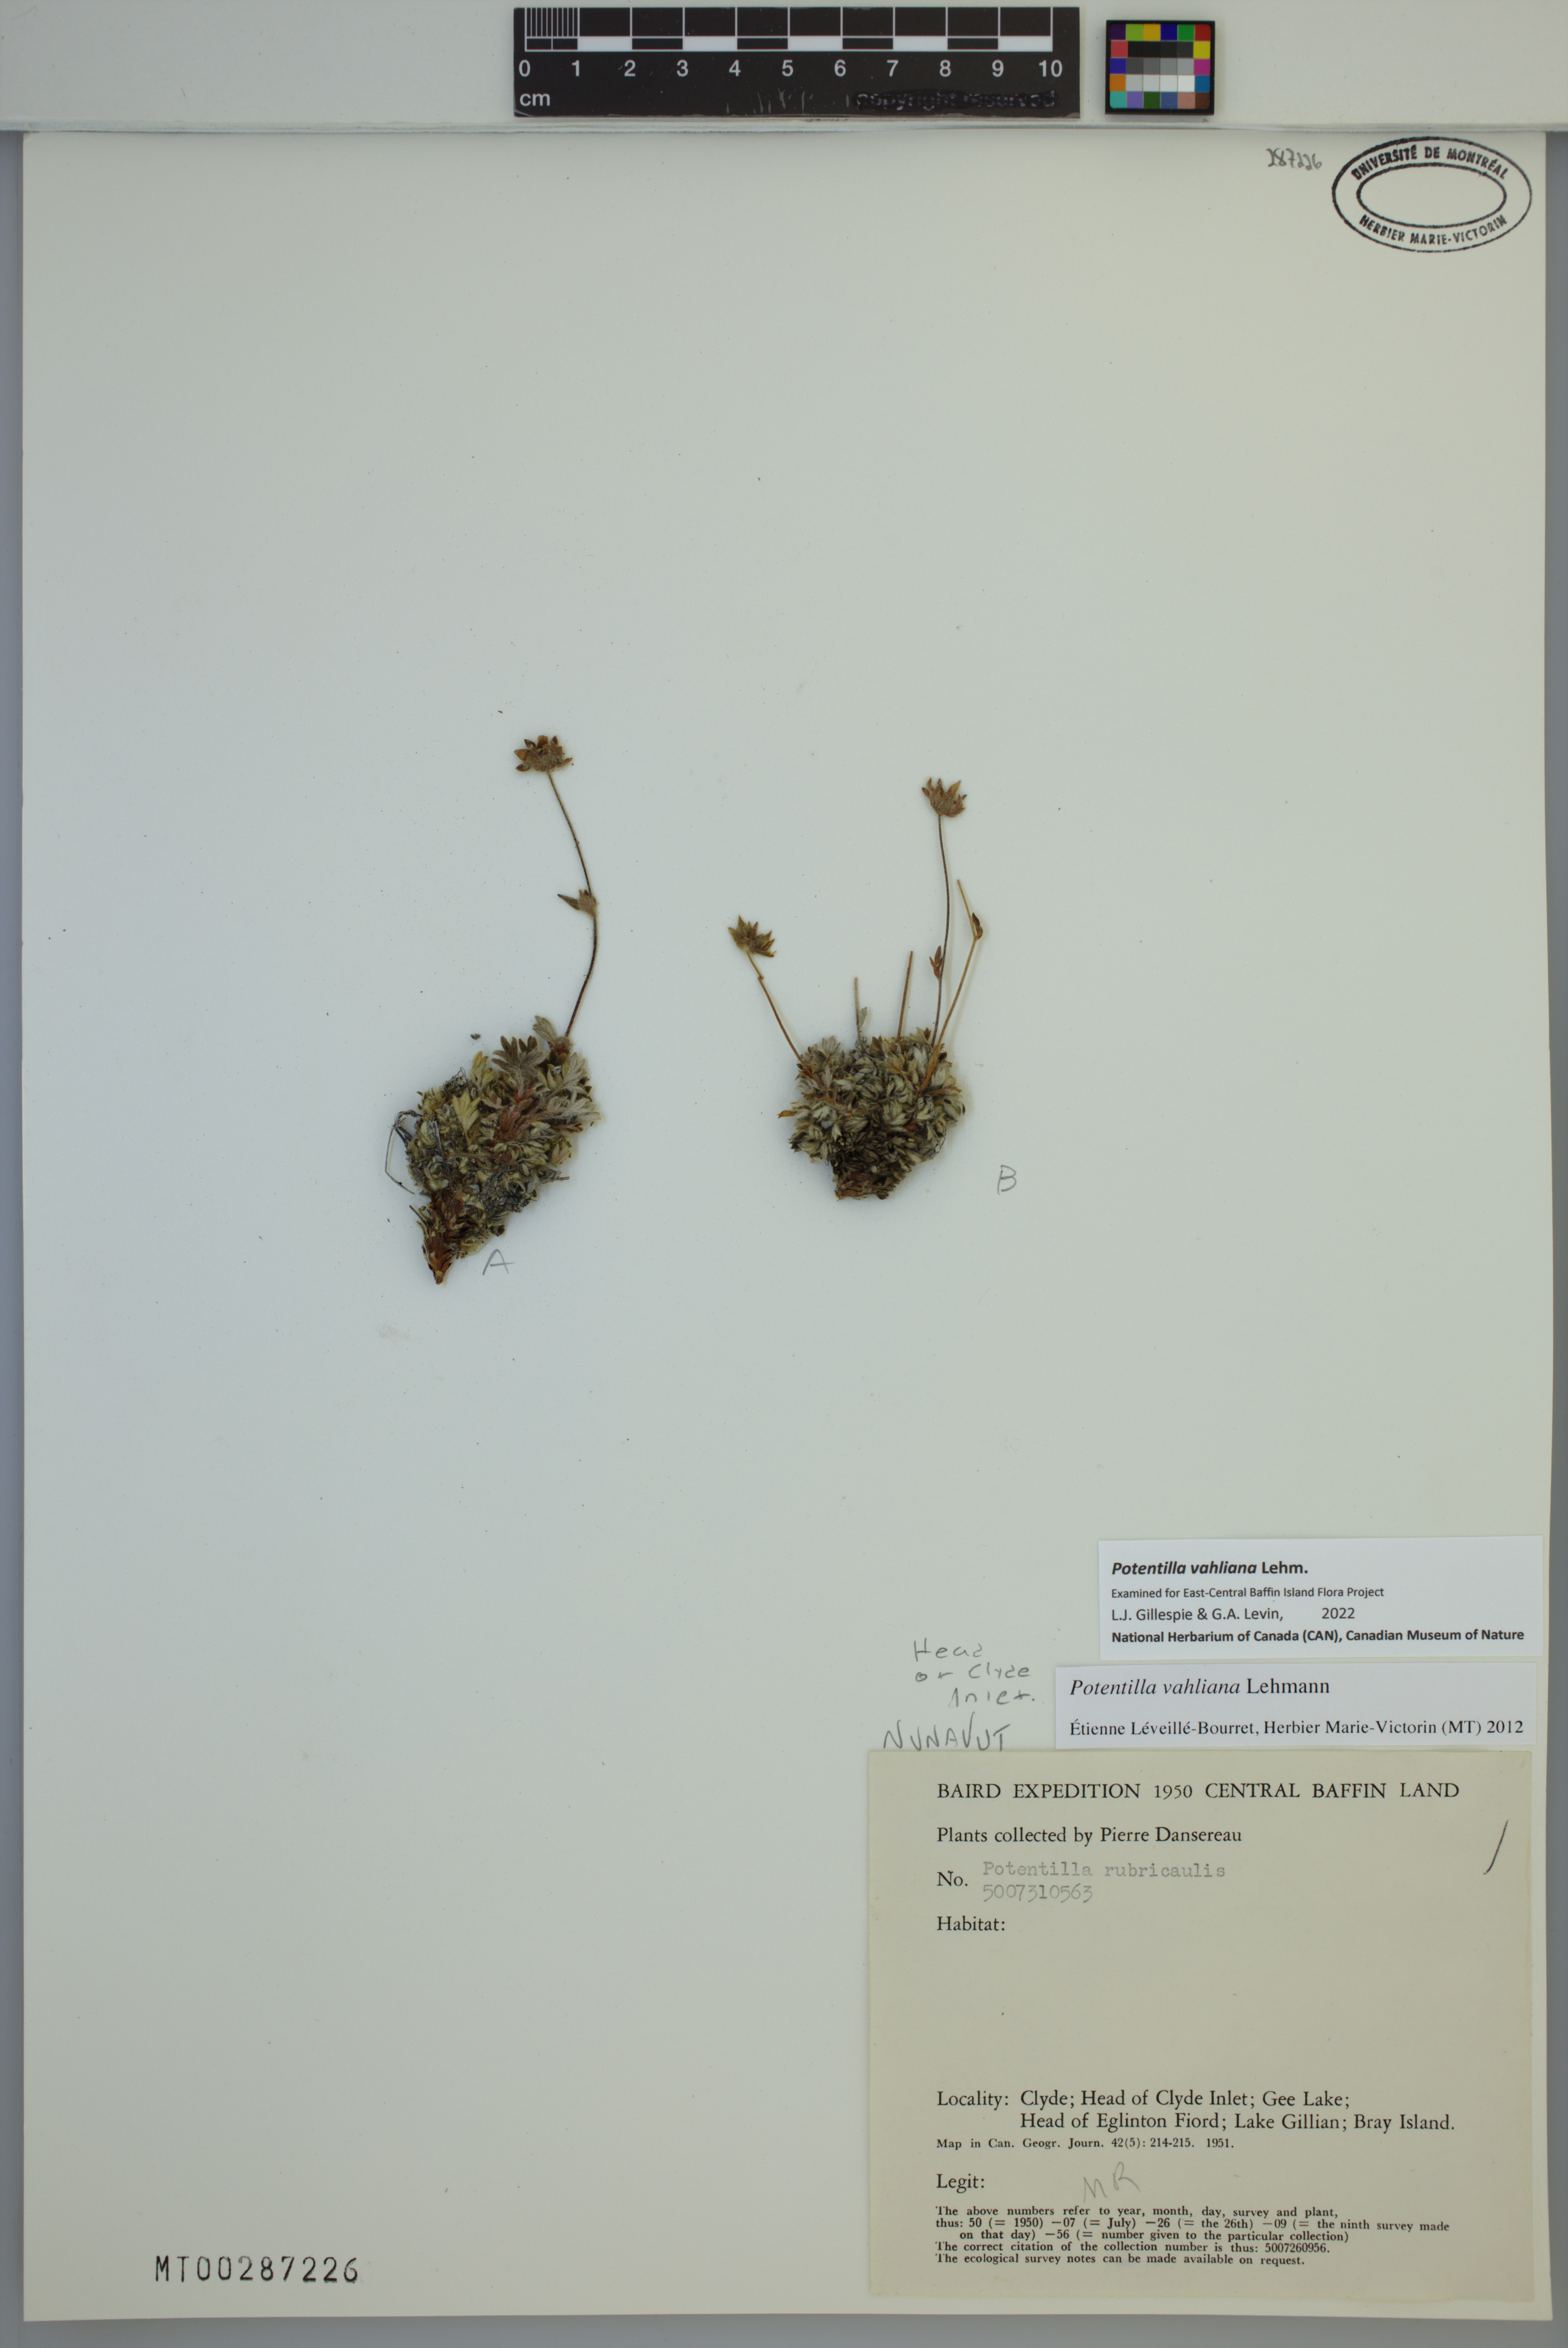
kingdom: Plantae
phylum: Tracheophyta
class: Magnoliopsida
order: Rosales
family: Rosaceae
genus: Potentilla
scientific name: Potentilla vahliana
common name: Vahl's cinquefoil
